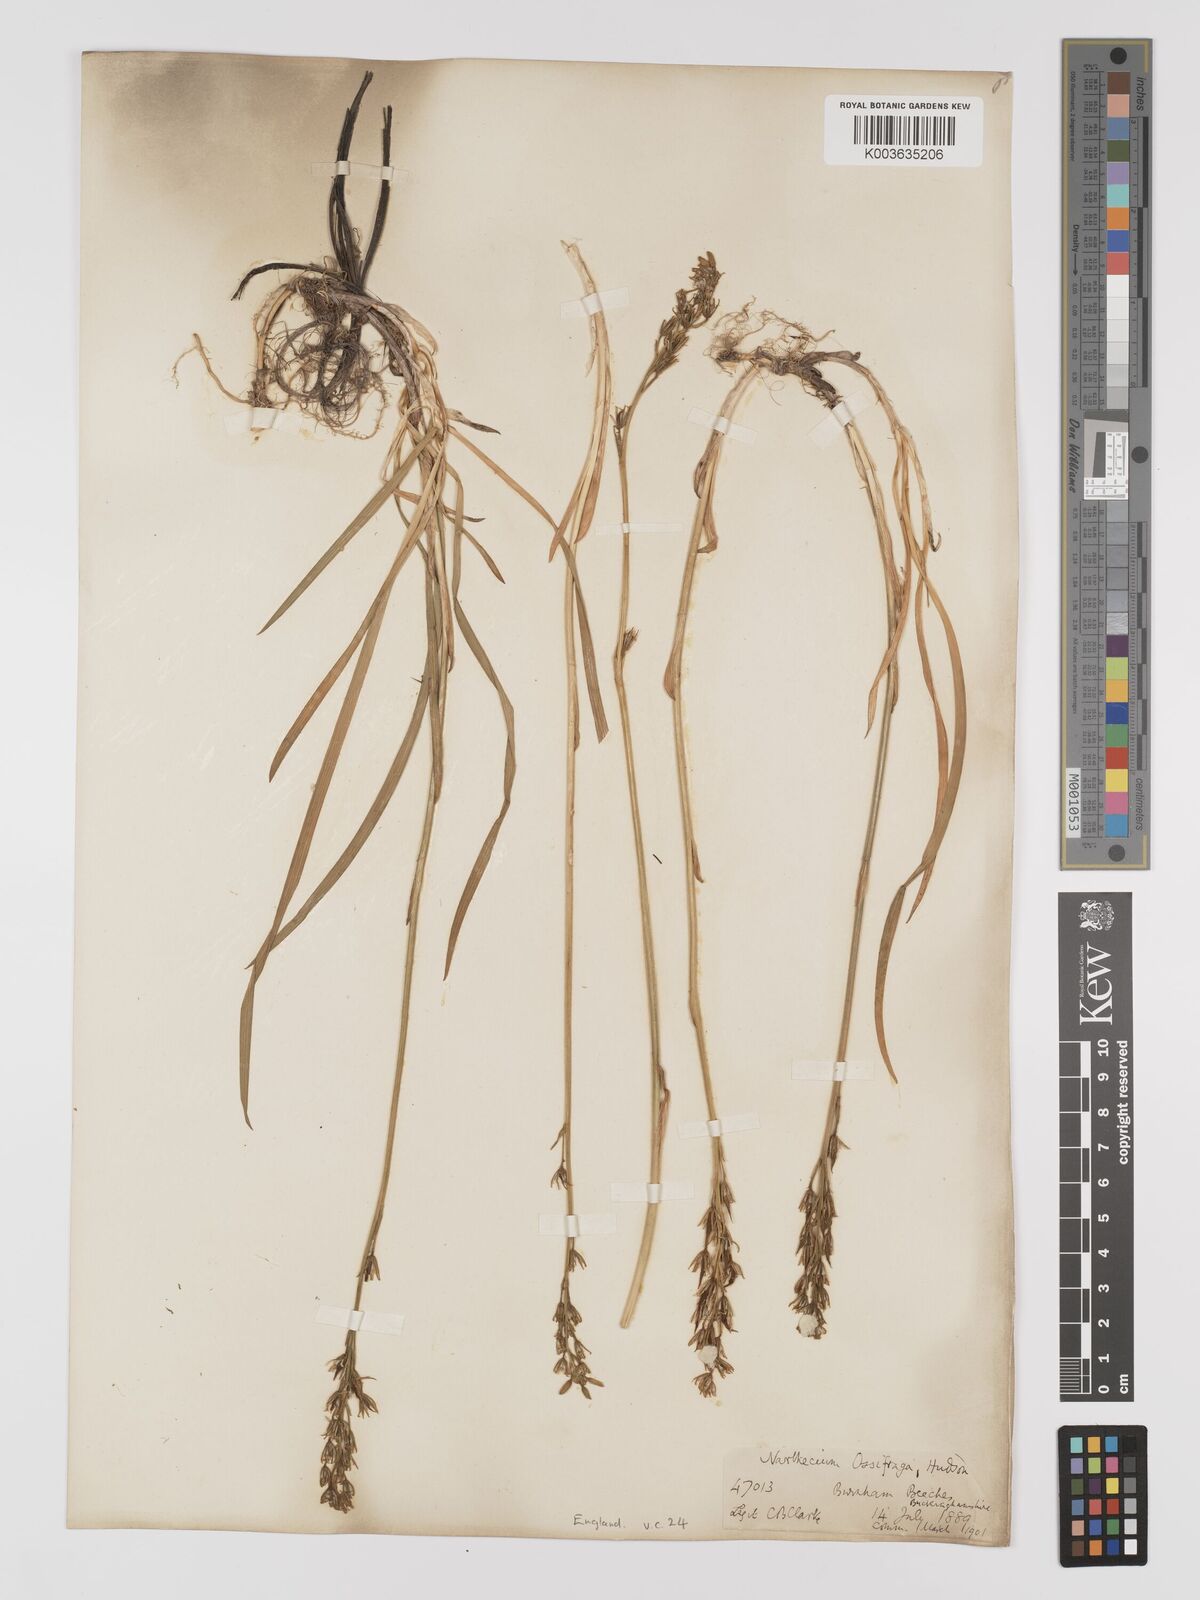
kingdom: Plantae
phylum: Tracheophyta
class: Liliopsida
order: Dioscoreales
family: Nartheciaceae
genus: Narthecium
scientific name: Narthecium
